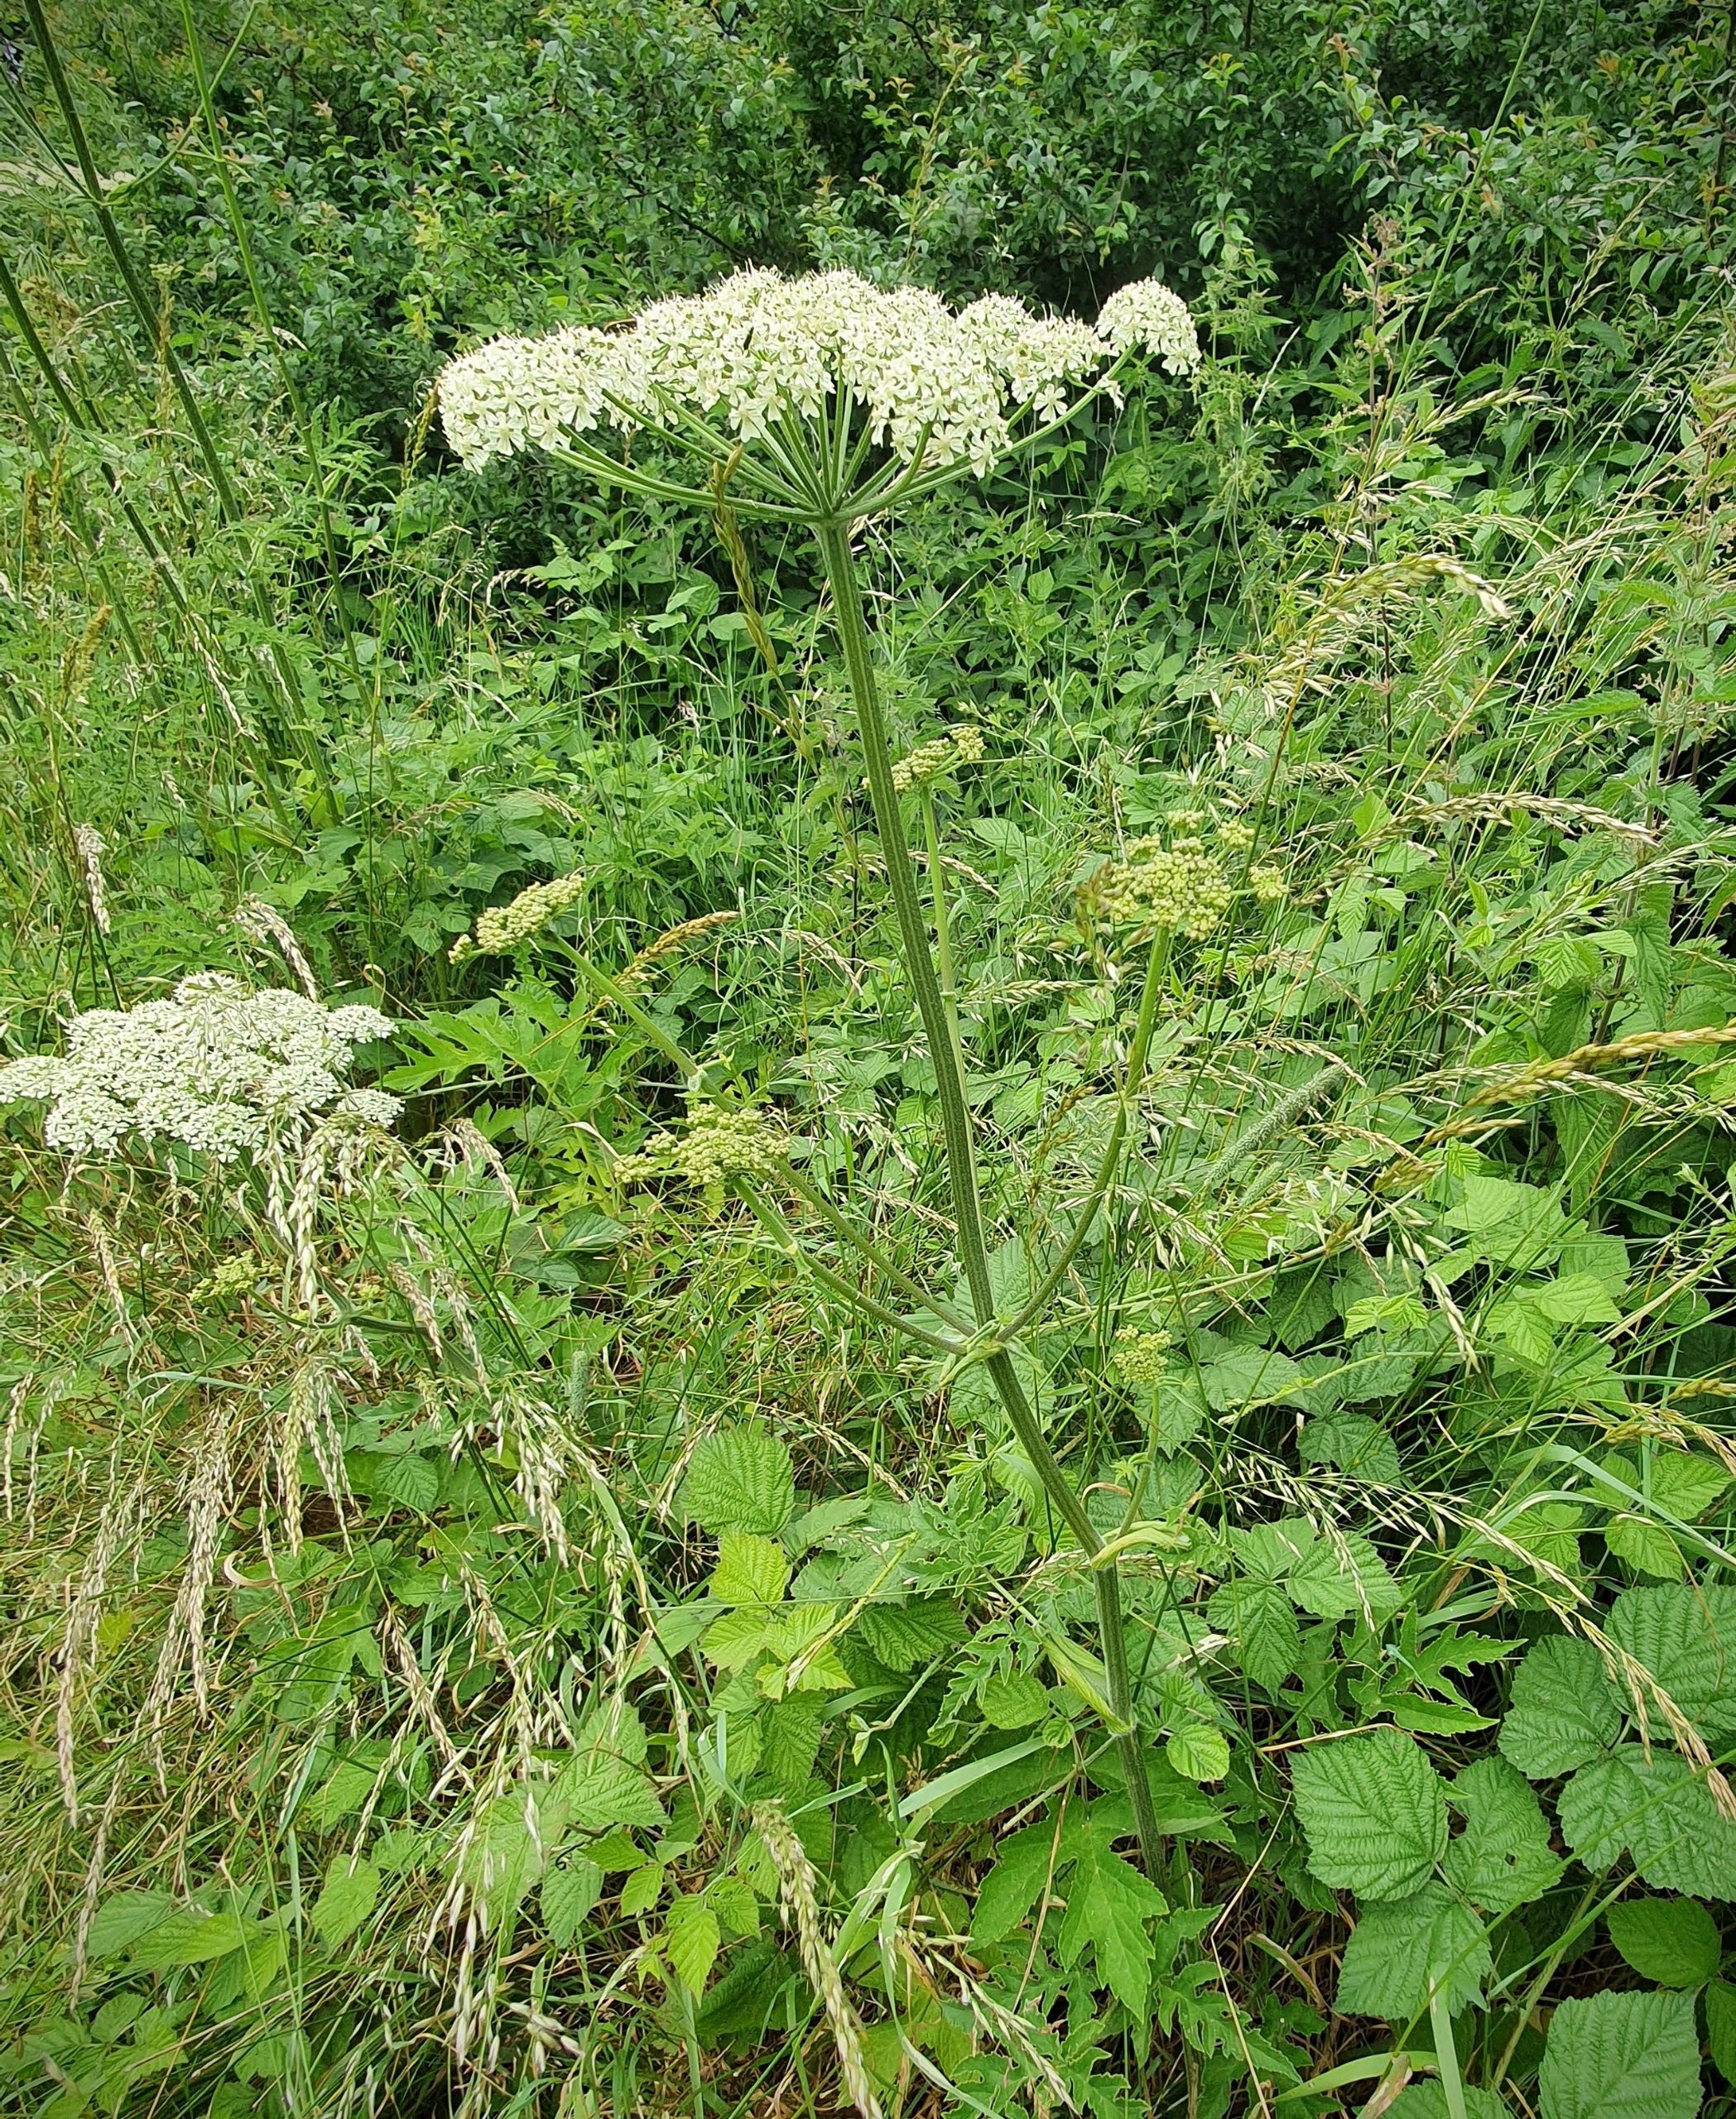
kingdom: Plantae
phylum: Tracheophyta
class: Magnoliopsida
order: Apiales
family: Apiaceae
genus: Heracleum
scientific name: Heracleum sphondylium
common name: Almindelig bjørneklo
